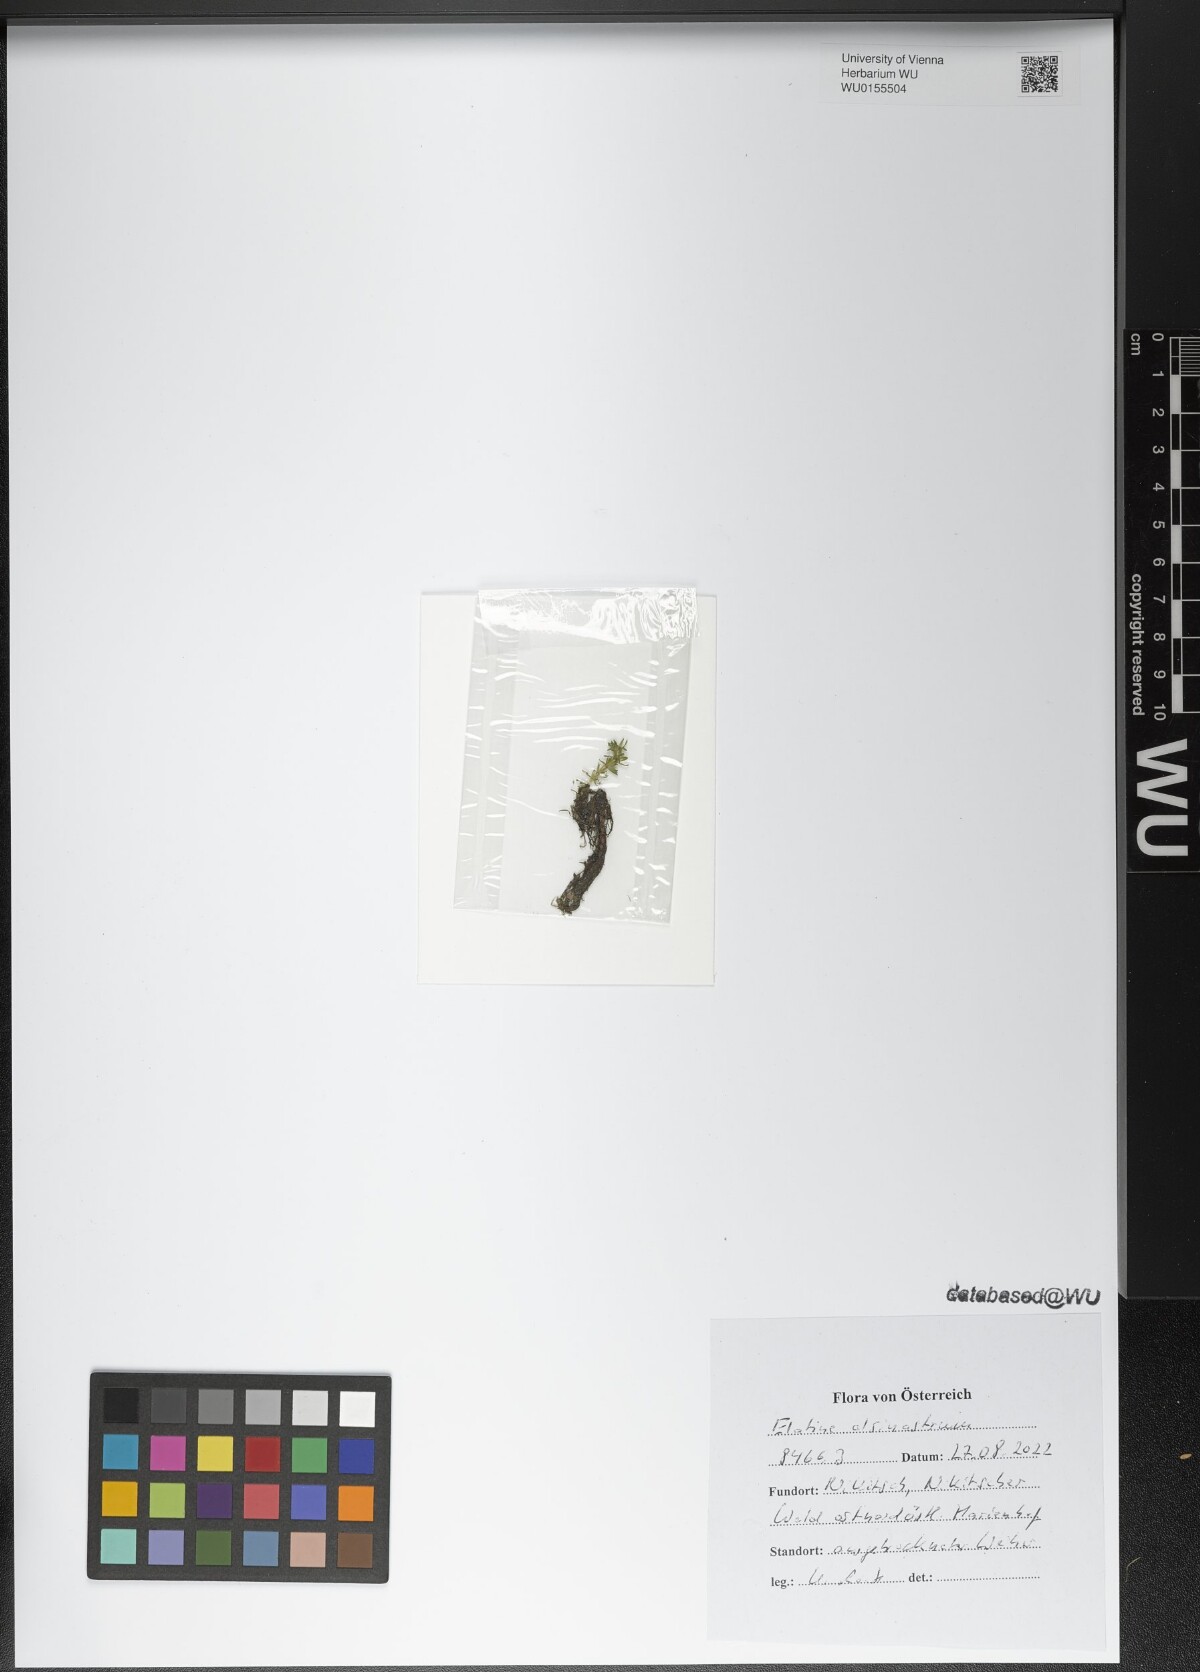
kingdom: Plantae
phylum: Tracheophyta
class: Magnoliopsida
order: Malpighiales
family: Elatinaceae
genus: Elatine
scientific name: Elatine alsinastrum
